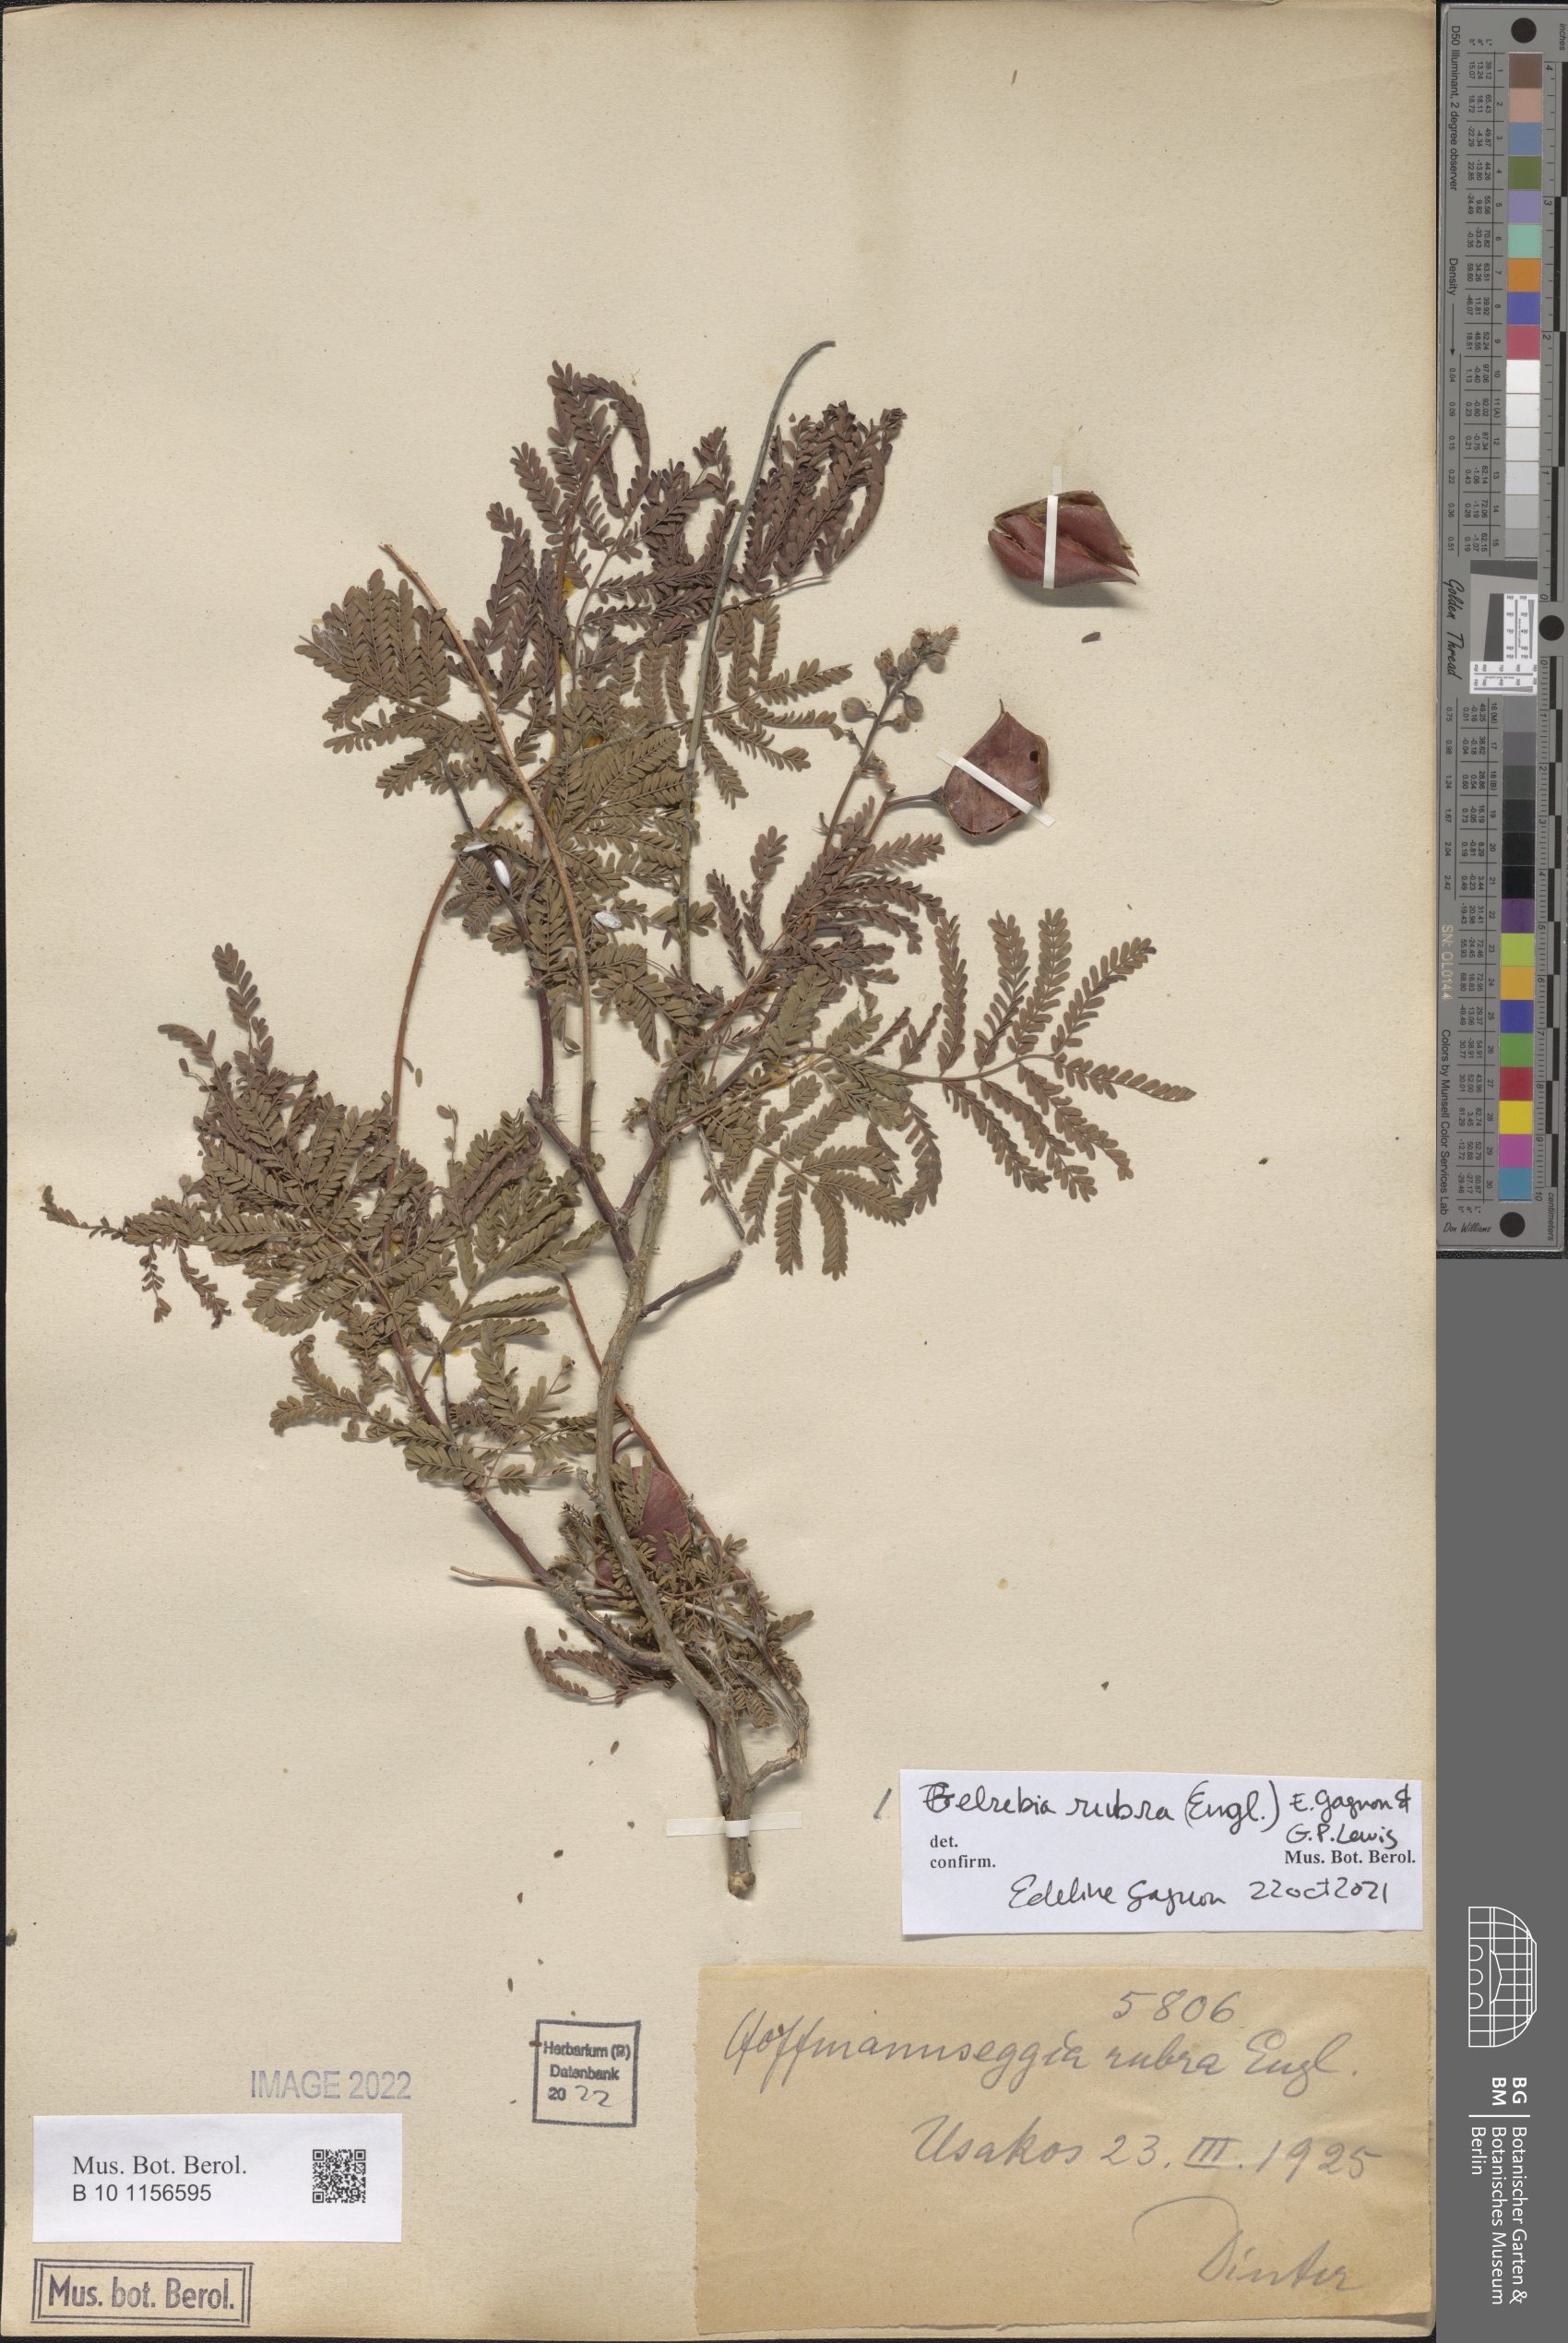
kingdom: Plantae
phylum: Tracheophyta
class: Magnoliopsida
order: Fabales
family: Fabaceae
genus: Gelrebia
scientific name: Gelrebia rubra
